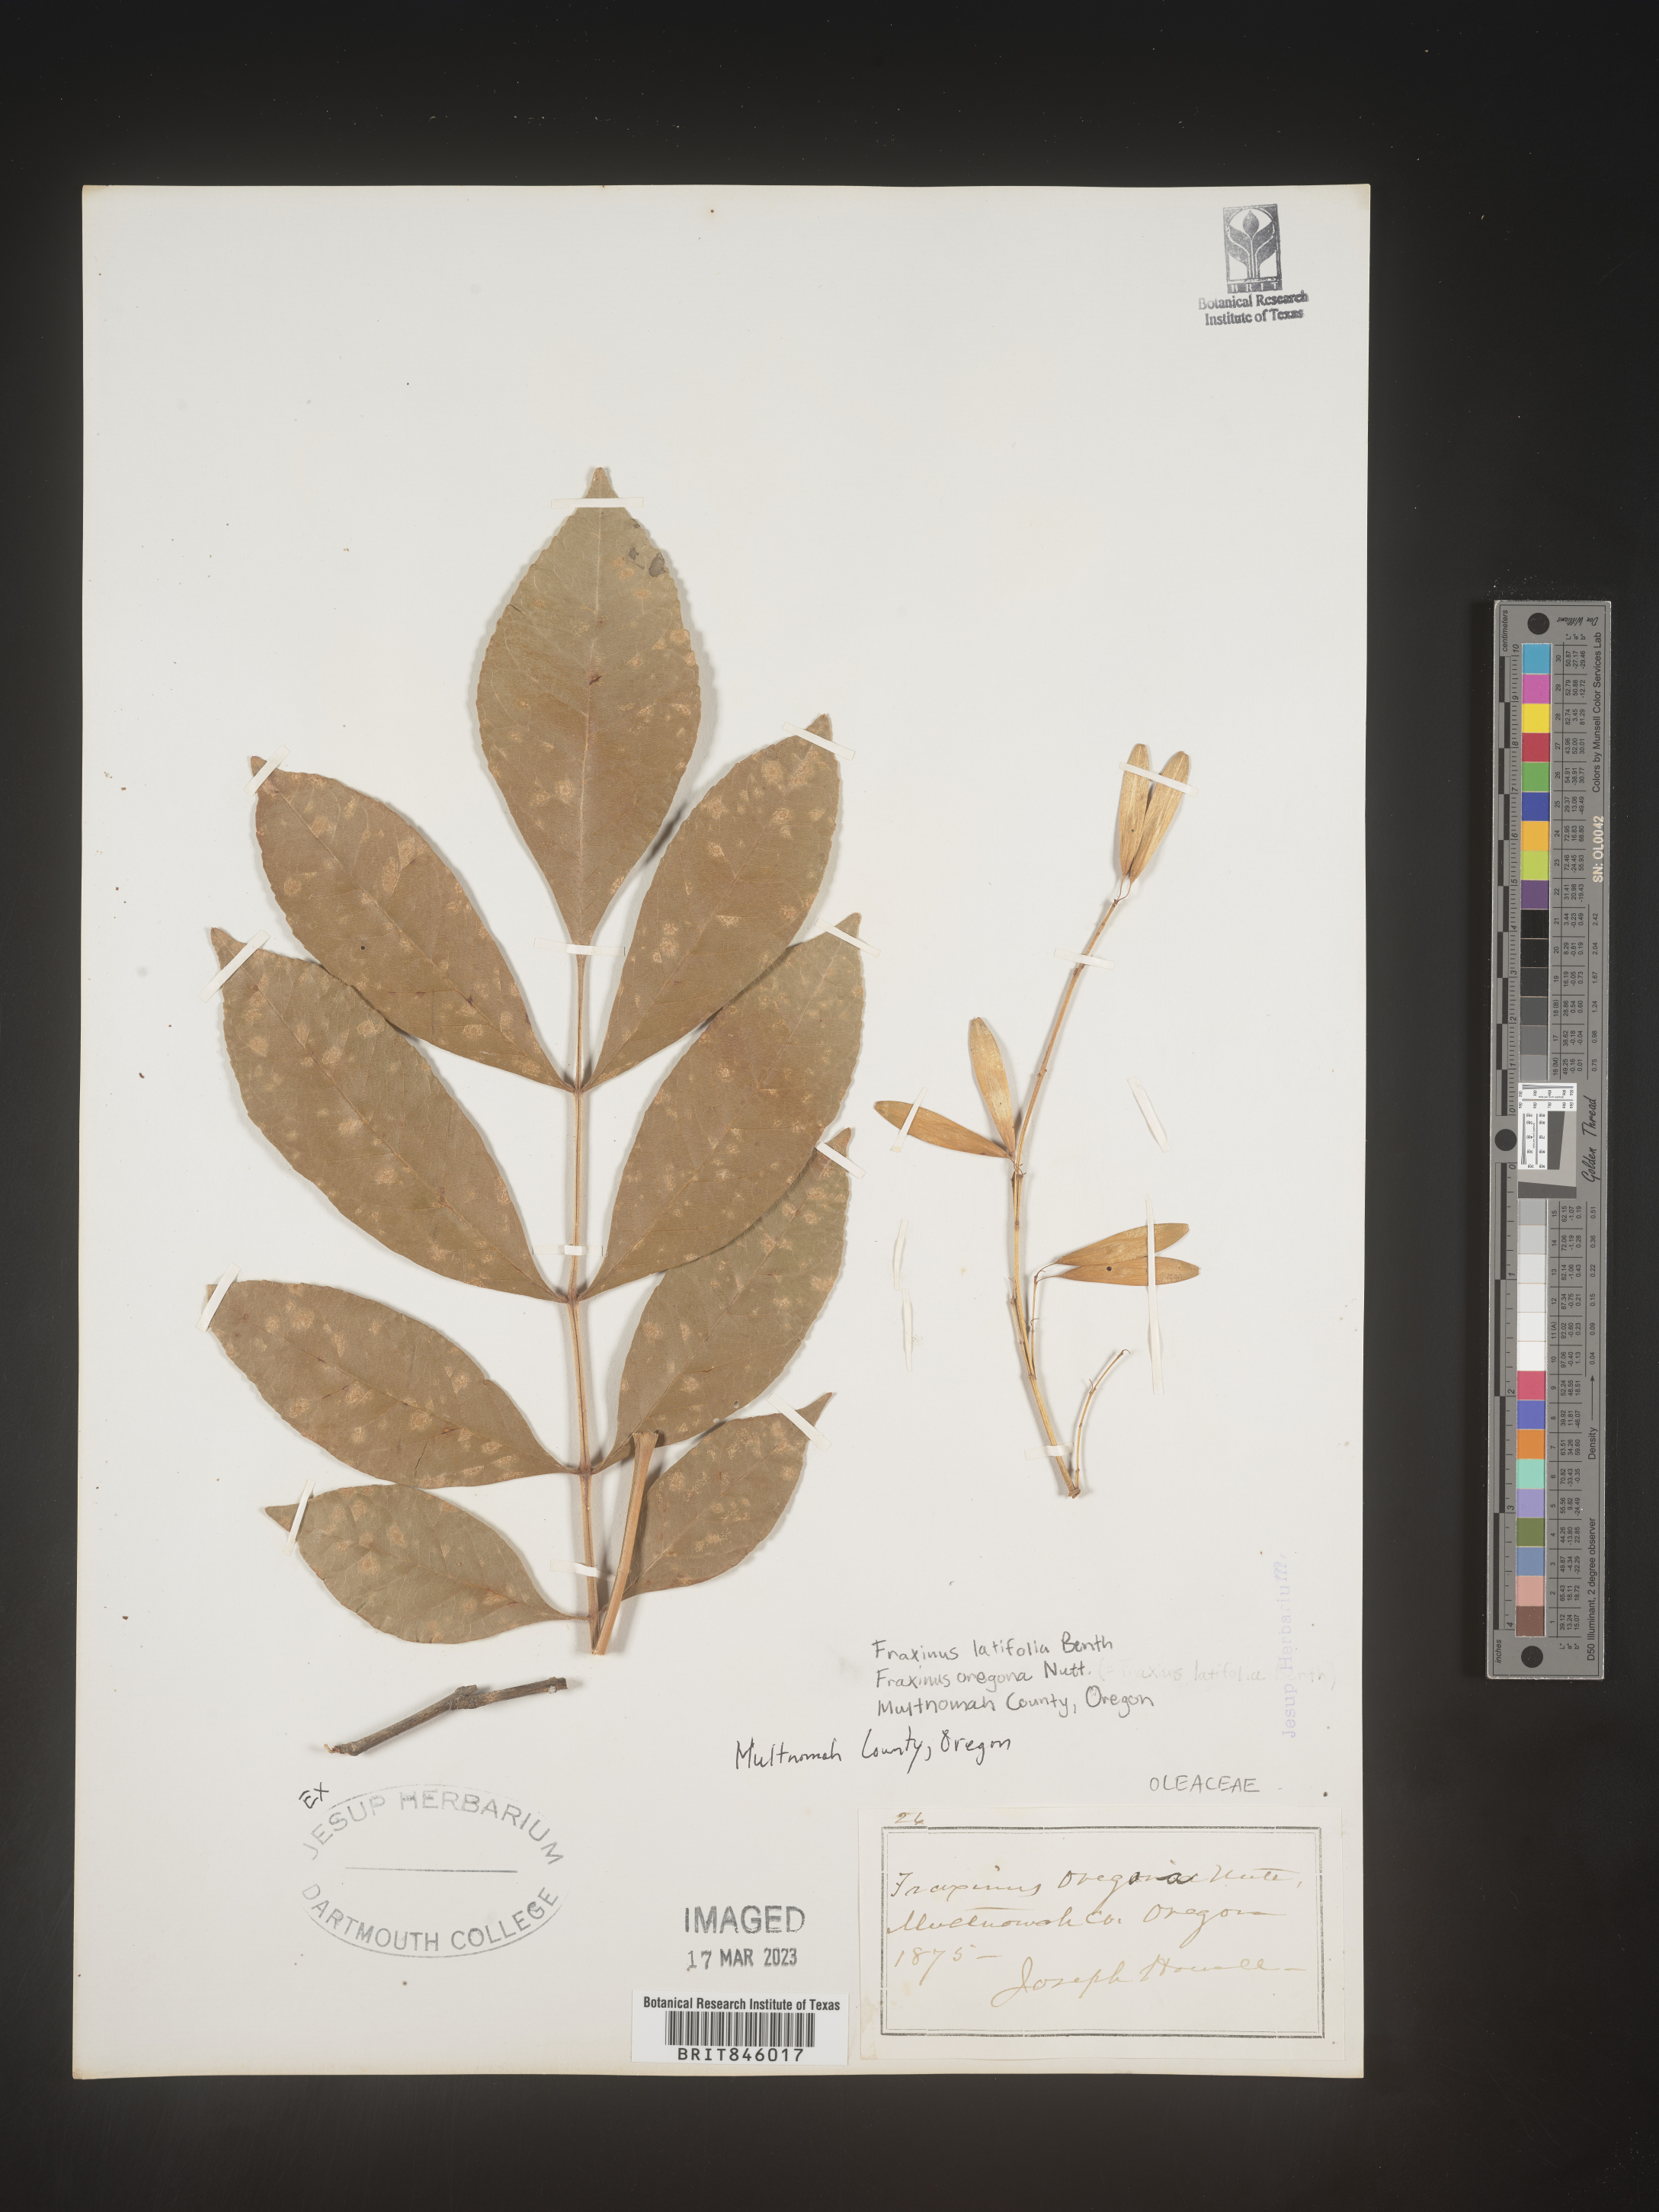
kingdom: Plantae
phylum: Tracheophyta
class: Magnoliopsida
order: Lamiales
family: Oleaceae
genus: Fraxinus
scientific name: Fraxinus latifolia
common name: Oregon ash
